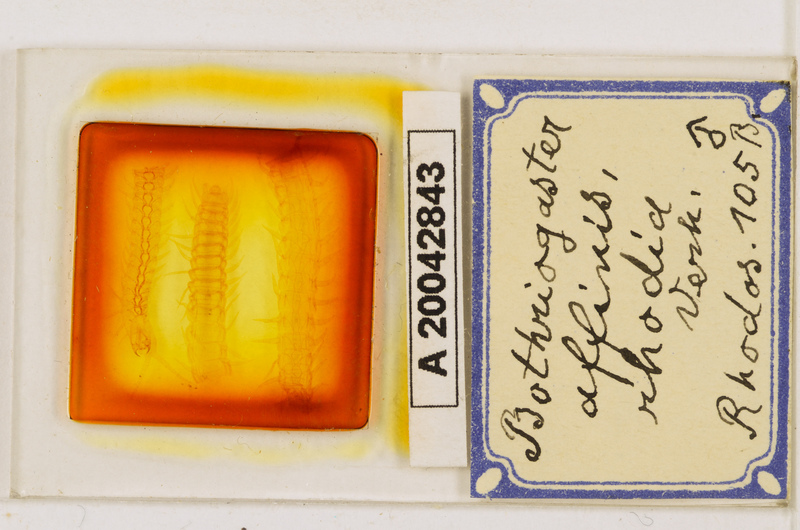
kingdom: Animalia
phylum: Arthropoda
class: Chilopoda
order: Geophilomorpha
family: Himantariidae
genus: Bothriogaster
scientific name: Bothriogaster signata
